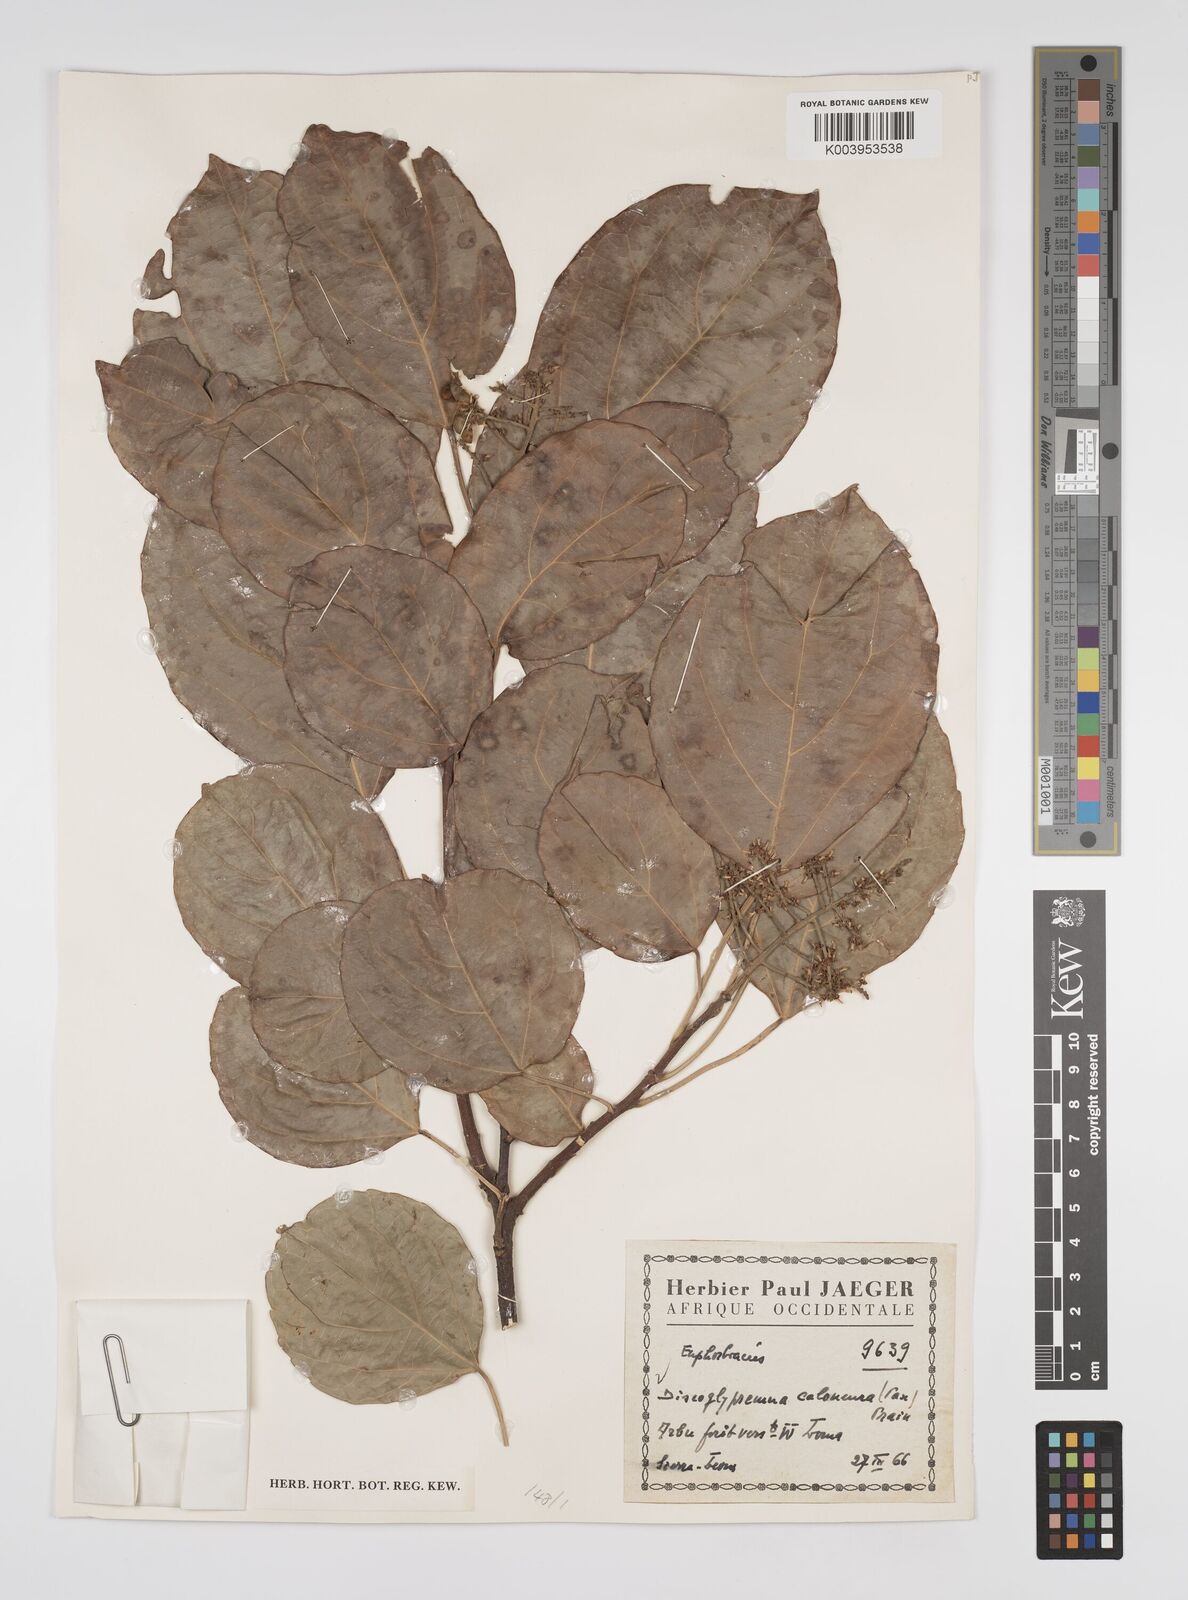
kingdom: Plantae
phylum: Tracheophyta
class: Magnoliopsida
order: Malpighiales
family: Euphorbiaceae
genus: Discoglypremna
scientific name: Discoglypremna caloneura
